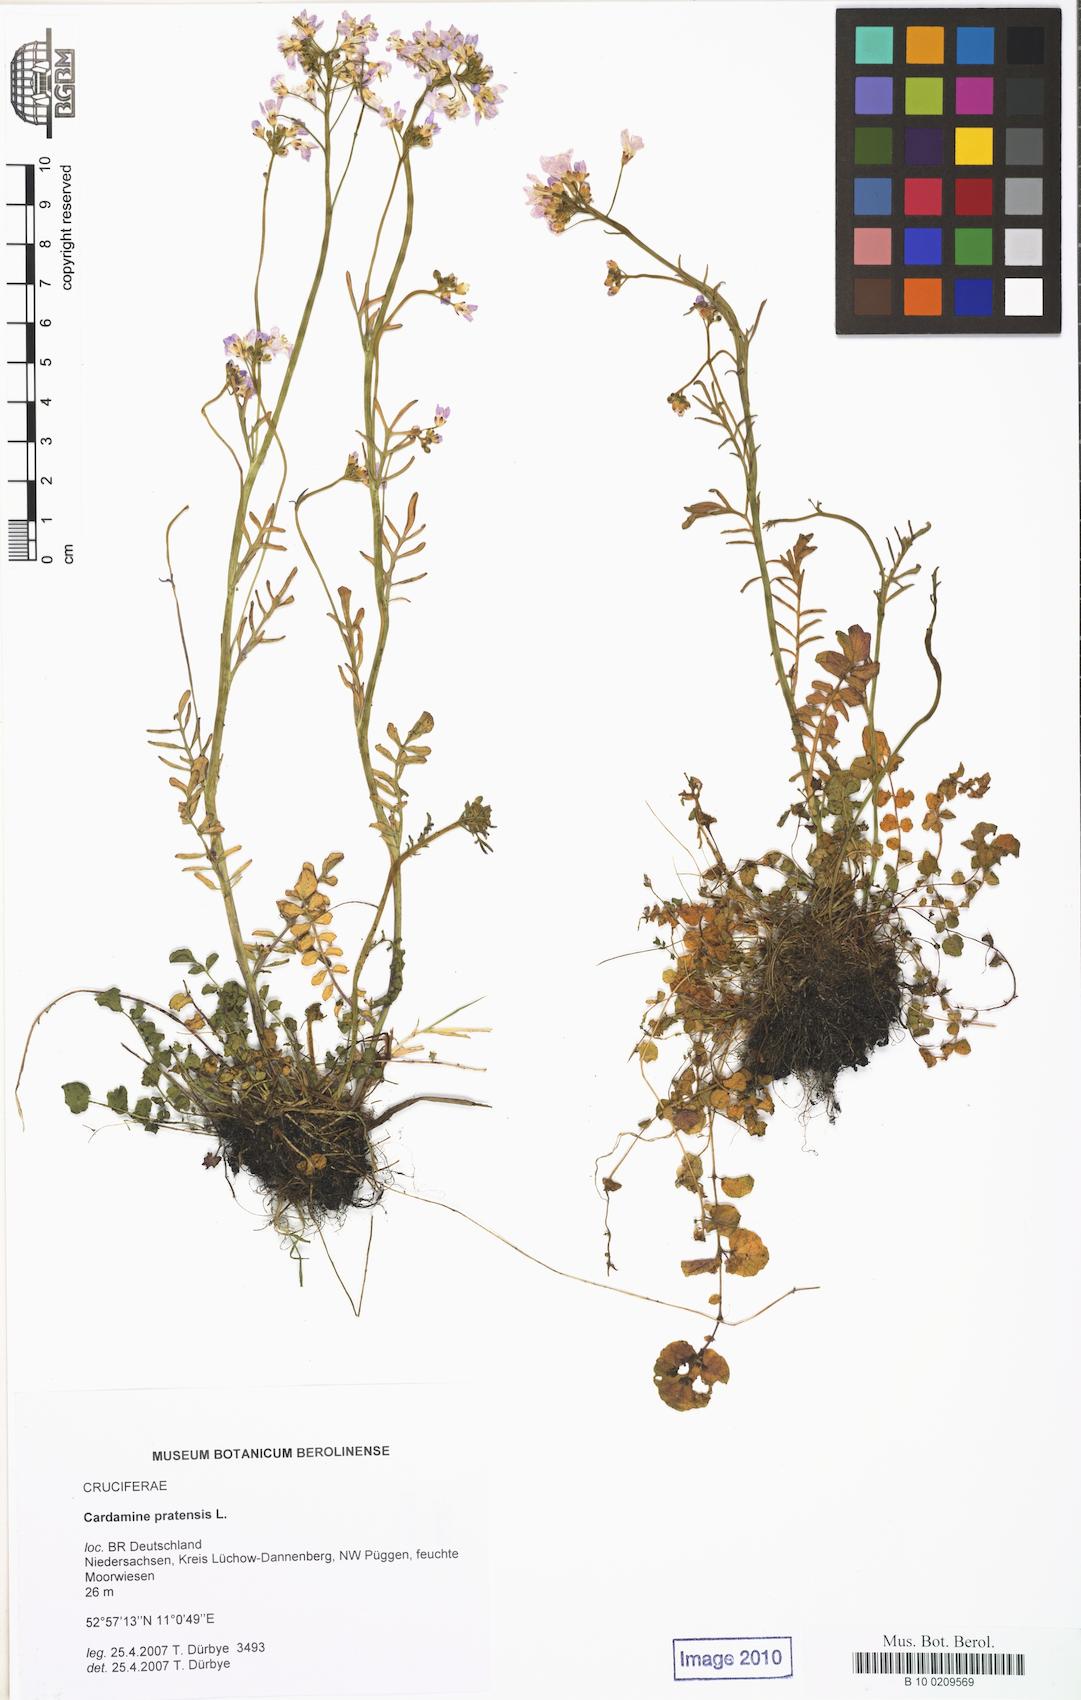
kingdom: Plantae
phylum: Tracheophyta
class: Magnoliopsida
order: Brassicales
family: Brassicaceae
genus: Cardamine
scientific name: Cardamine pratensis
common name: Cuckoo flower
